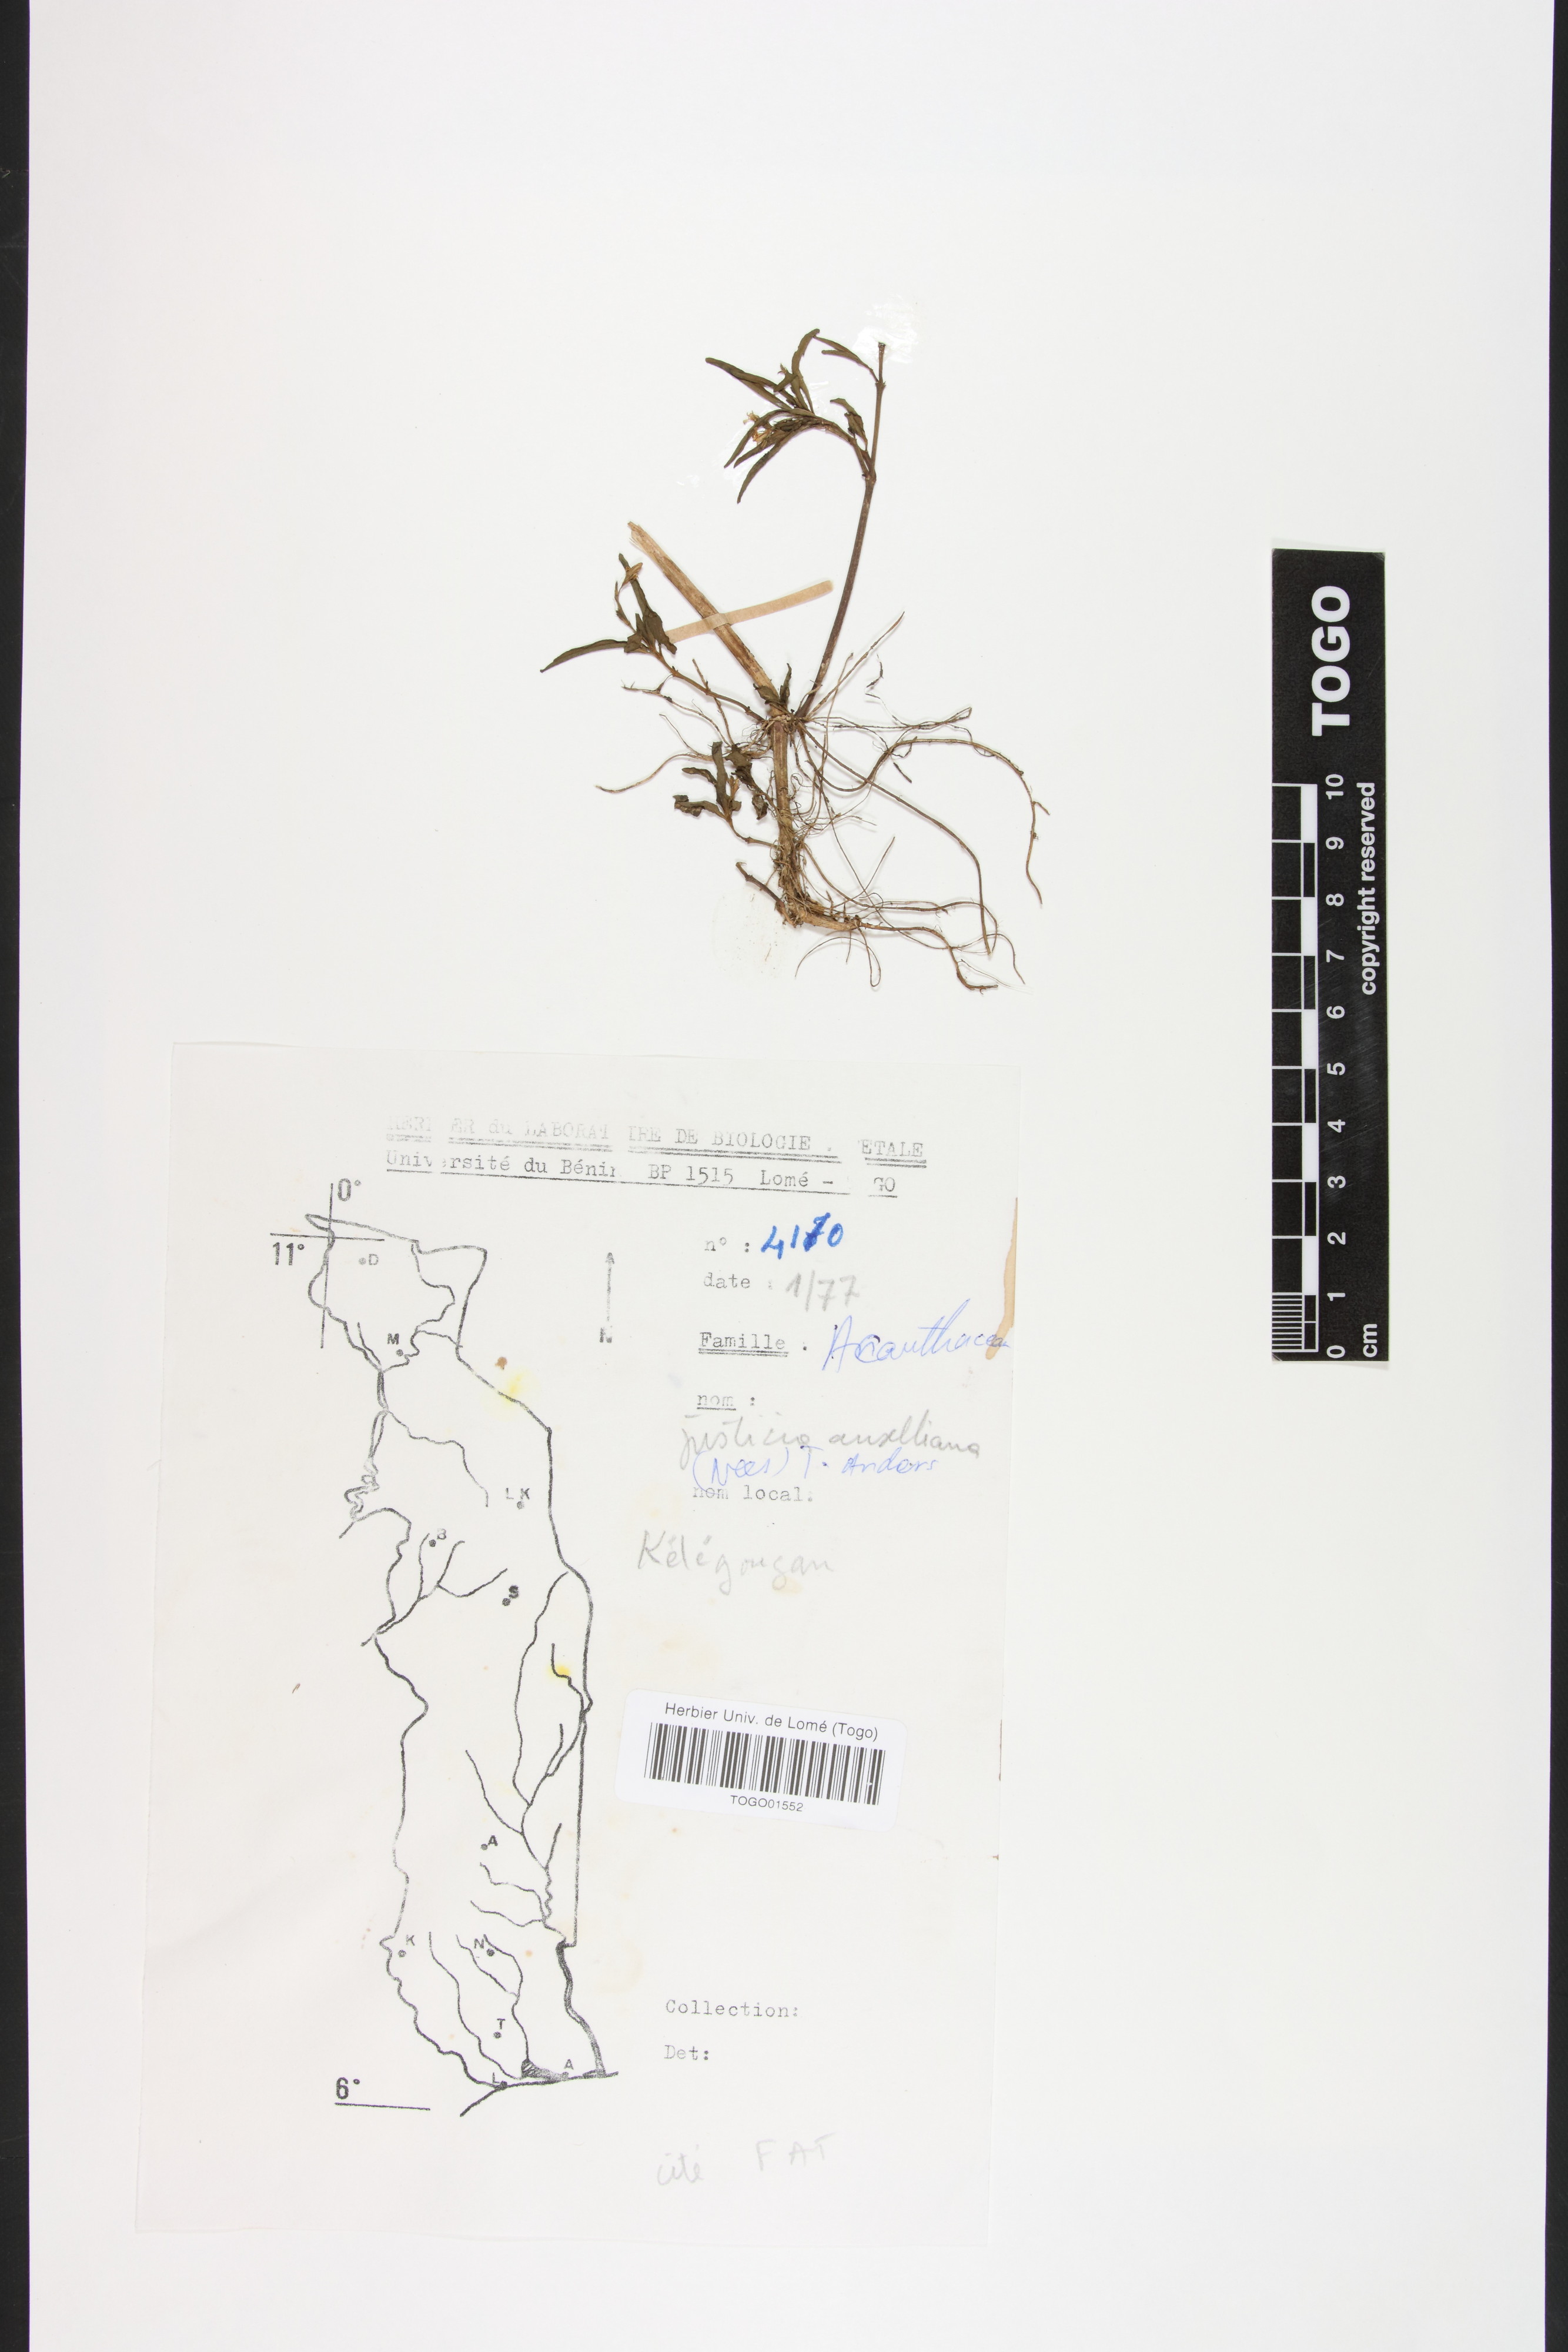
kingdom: Plantae
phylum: Tracheophyta
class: Magnoliopsida
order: Lamiales
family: Acanthaceae
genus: Justicia
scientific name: Justicia anselliana
